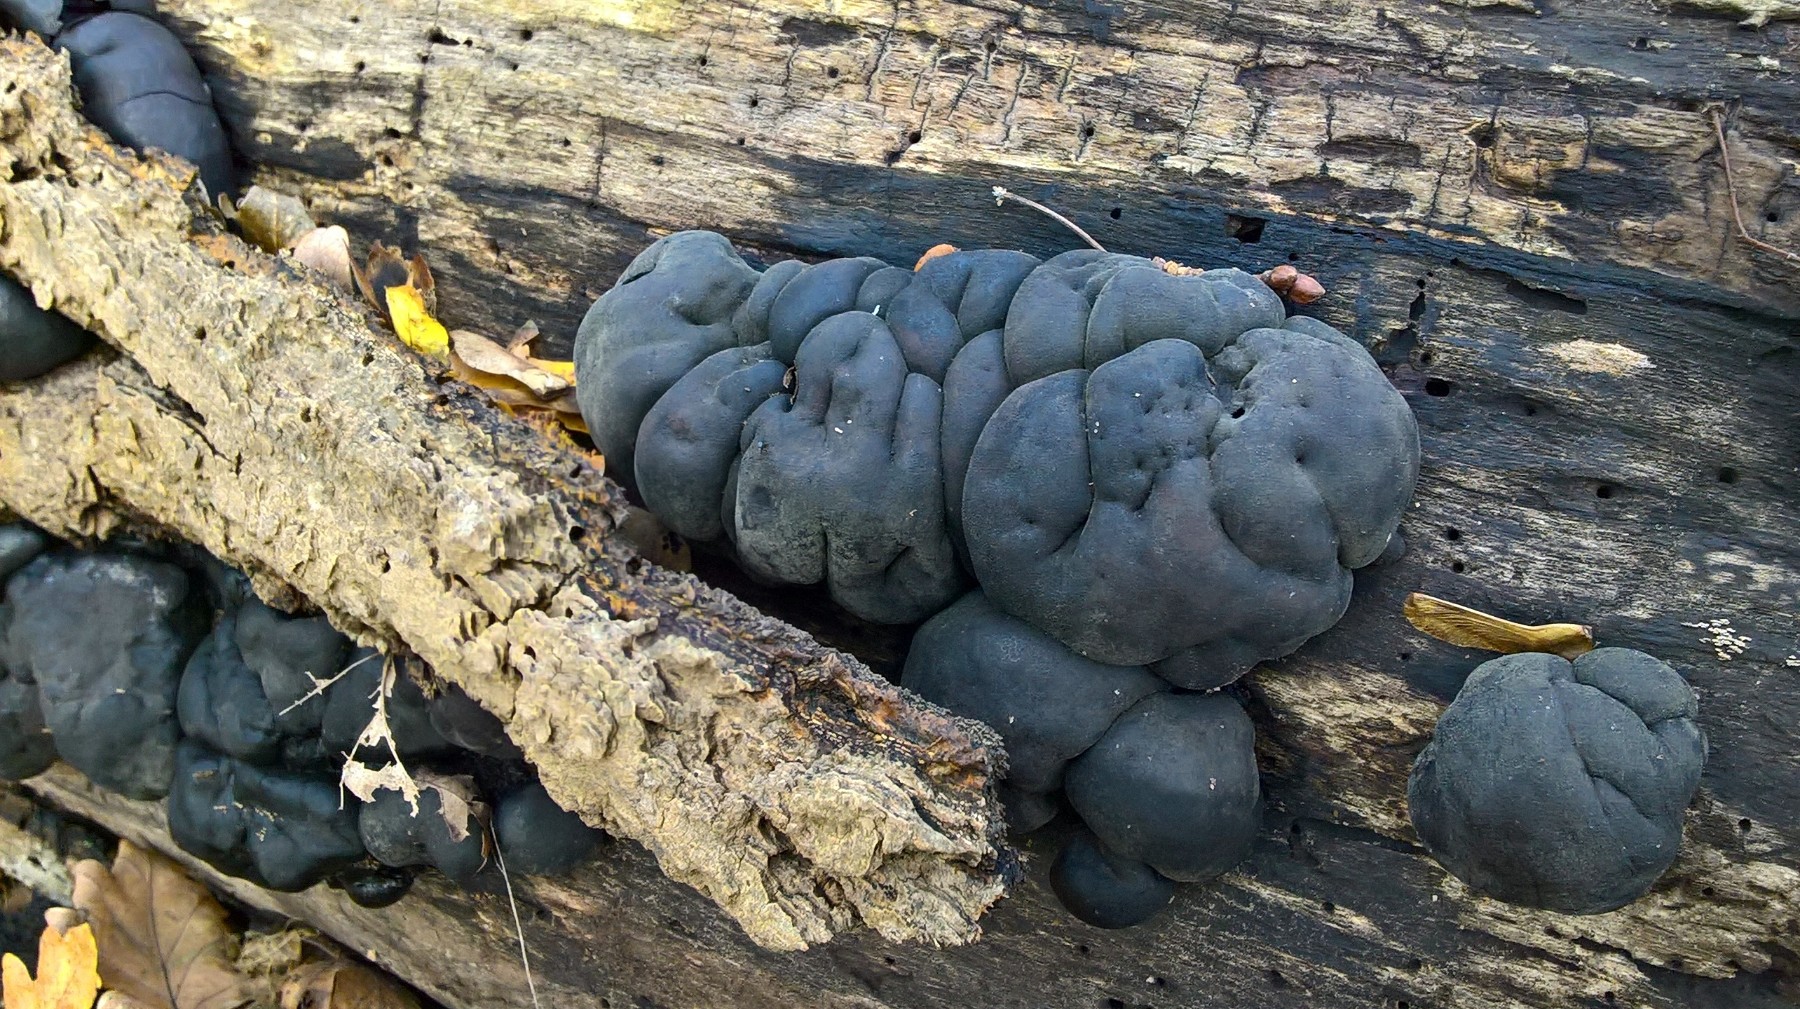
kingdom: Fungi
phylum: Ascomycota
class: Sordariomycetes
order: Xylariales
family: Hypoxylaceae
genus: Daldinia
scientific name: Daldinia concentrica
